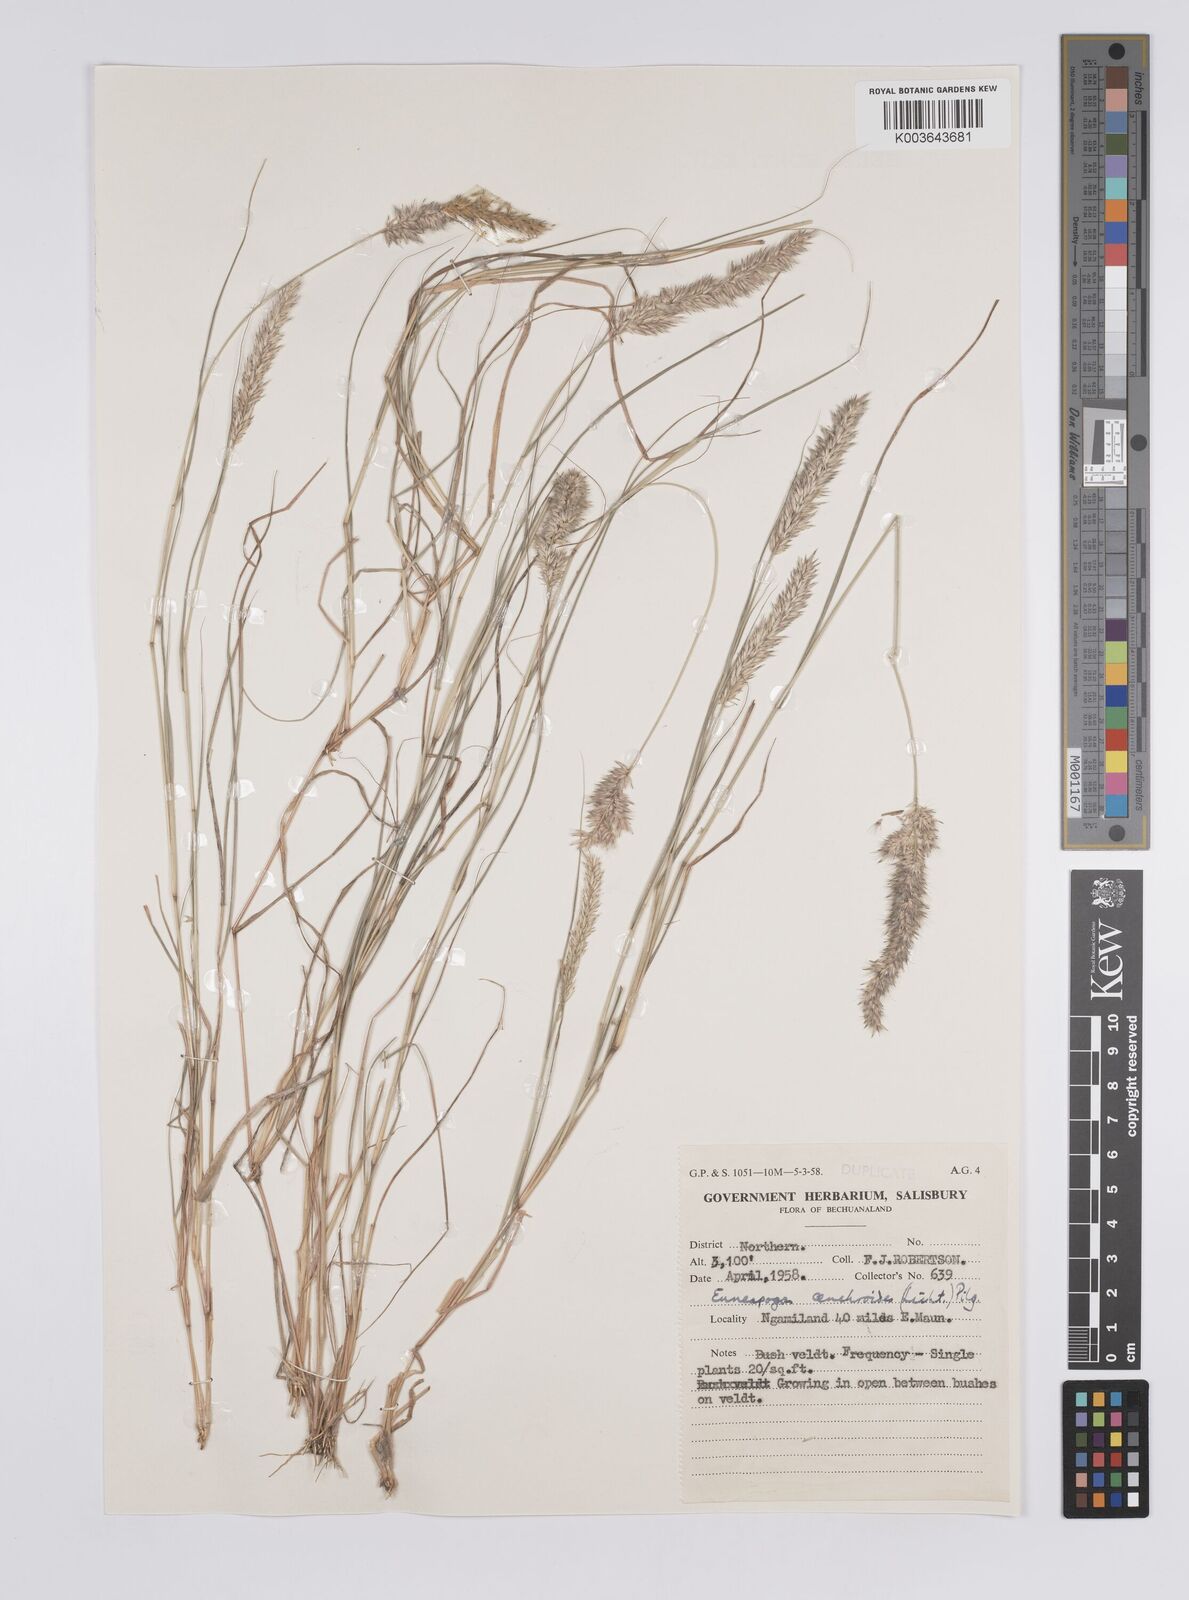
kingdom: Plantae
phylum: Tracheophyta
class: Liliopsida
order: Poales
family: Poaceae
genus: Enneapogon
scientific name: Enneapogon cenchroides
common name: Soft feather pappusgrass
